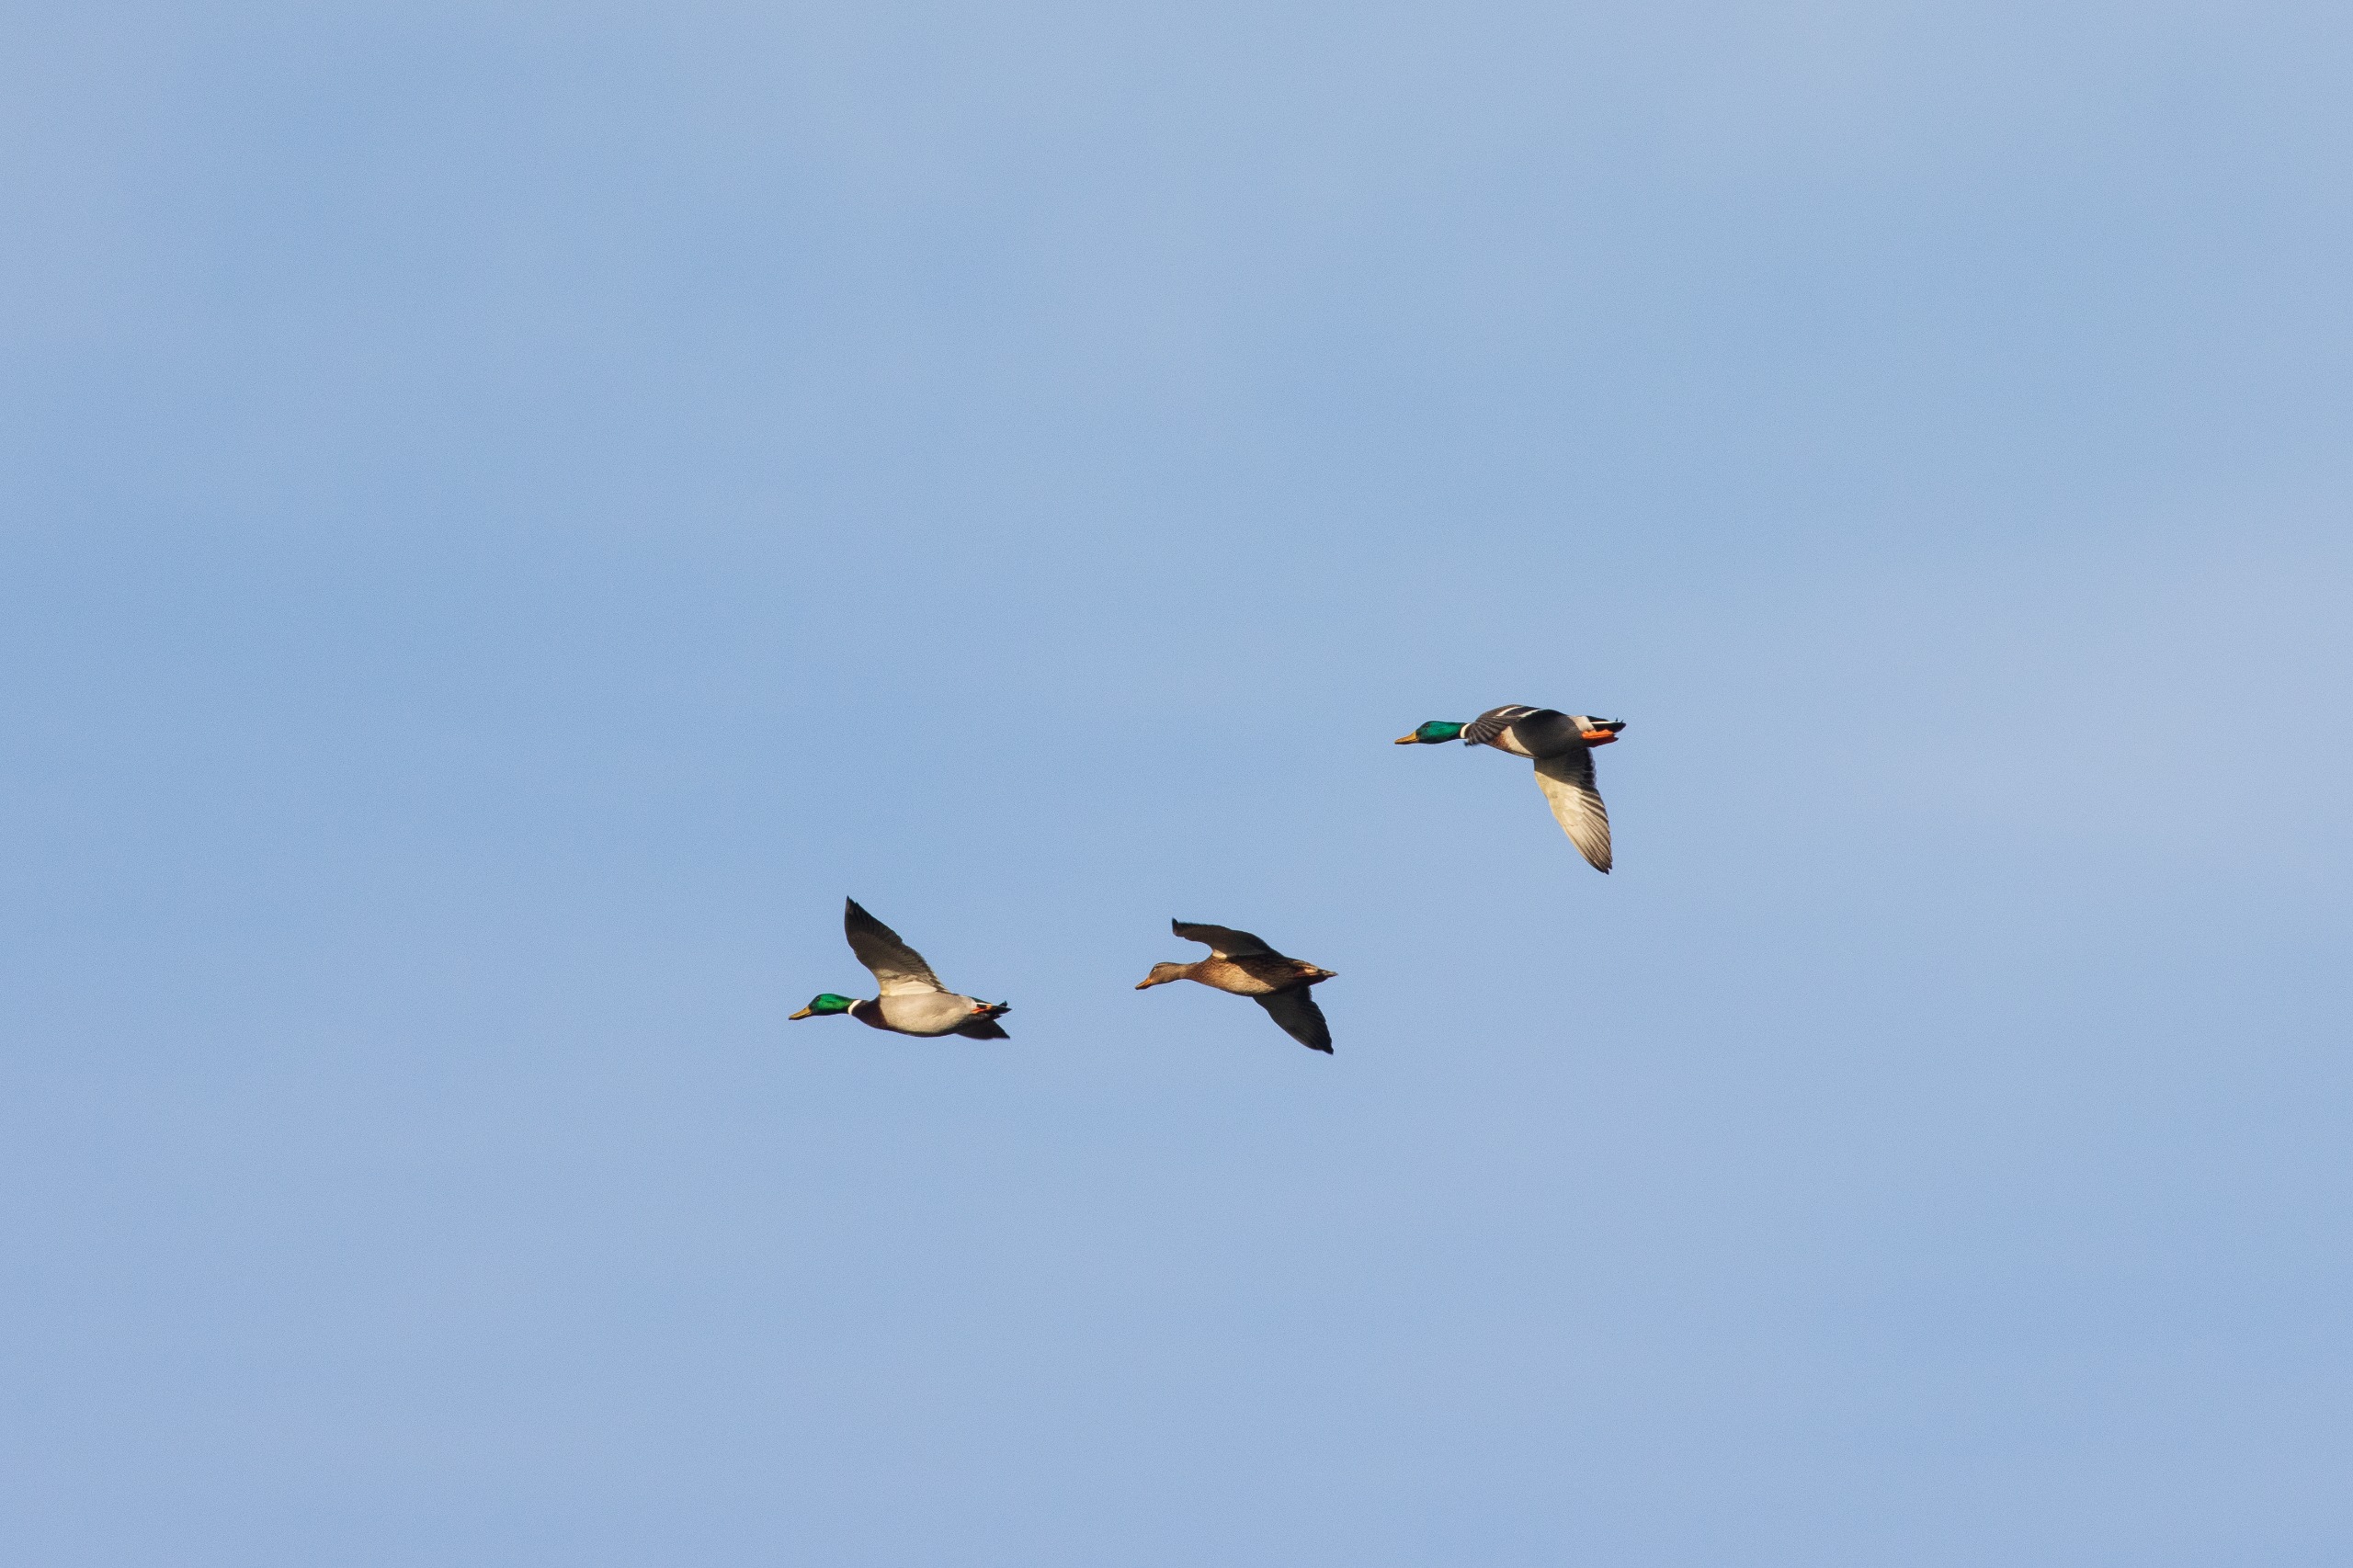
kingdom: Animalia
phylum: Chordata
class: Aves
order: Anseriformes
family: Anatidae
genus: Anas
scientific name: Anas platyrhynchos
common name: Gråand
